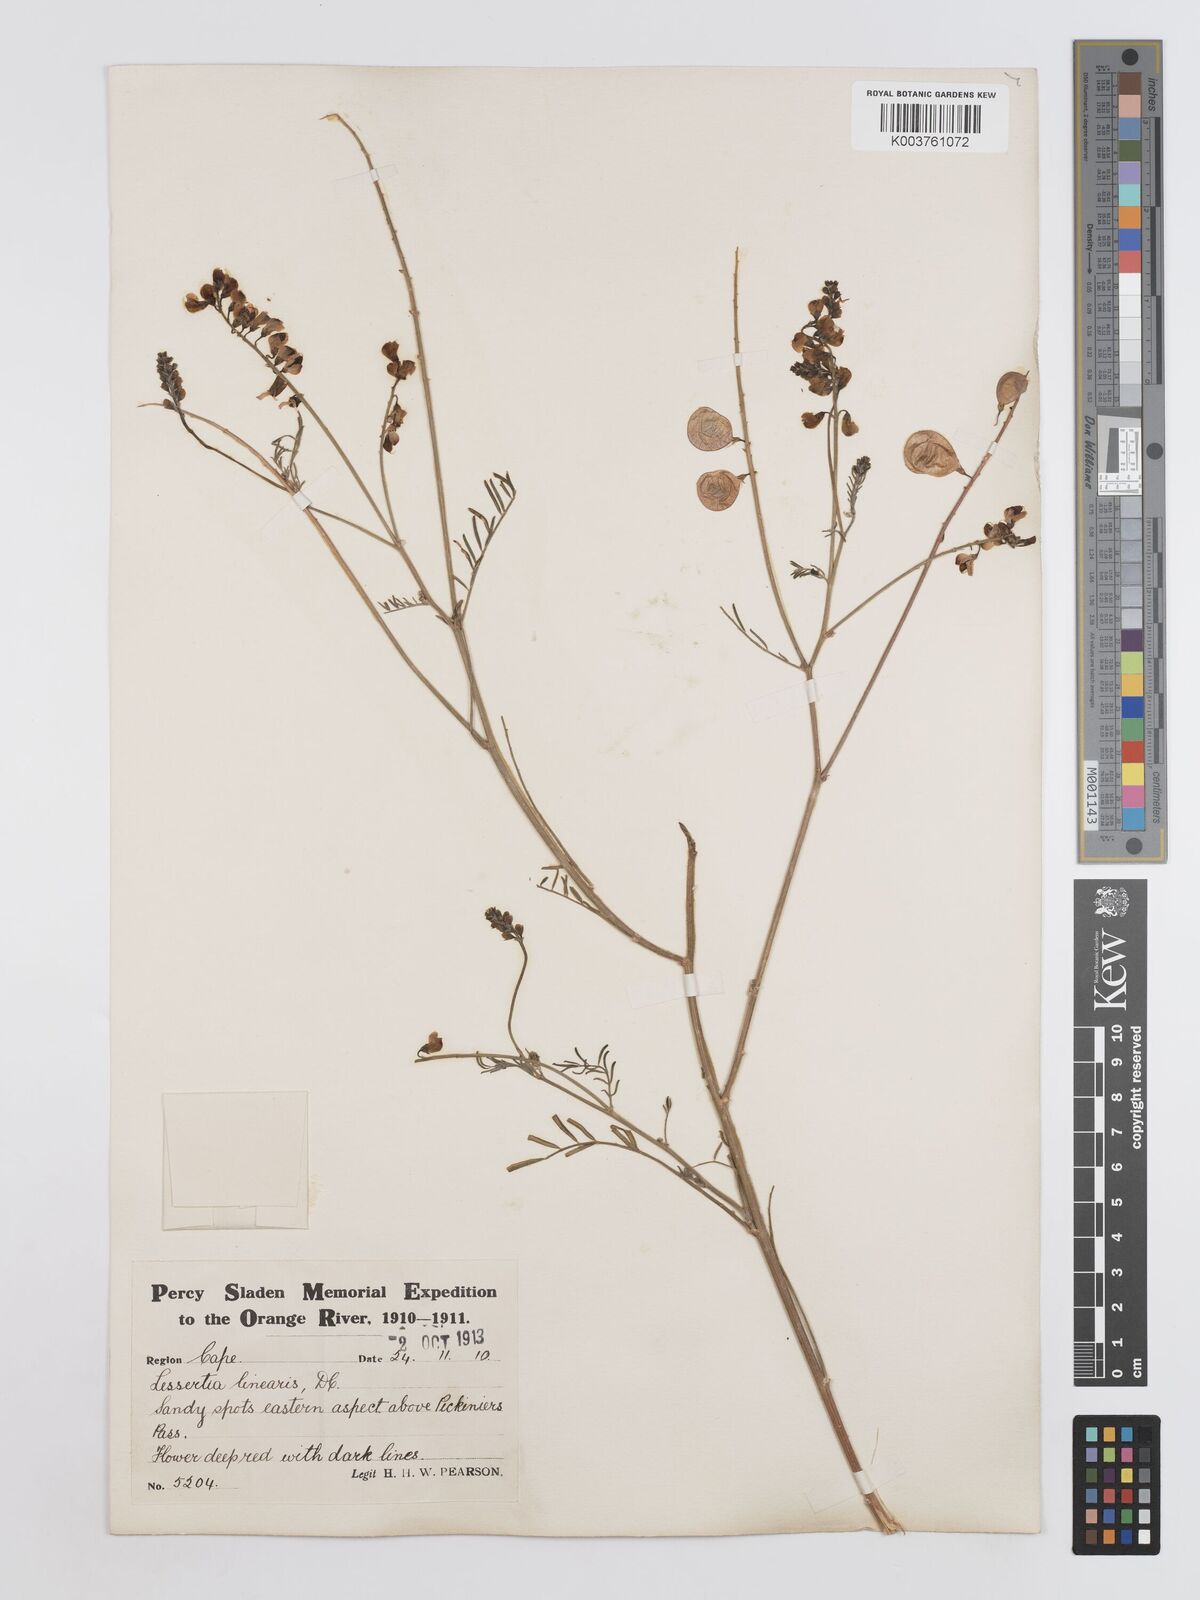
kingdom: Plantae
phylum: Tracheophyta
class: Magnoliopsida
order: Fabales
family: Fabaceae
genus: Lessertia
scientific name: Lessertia herbacea
